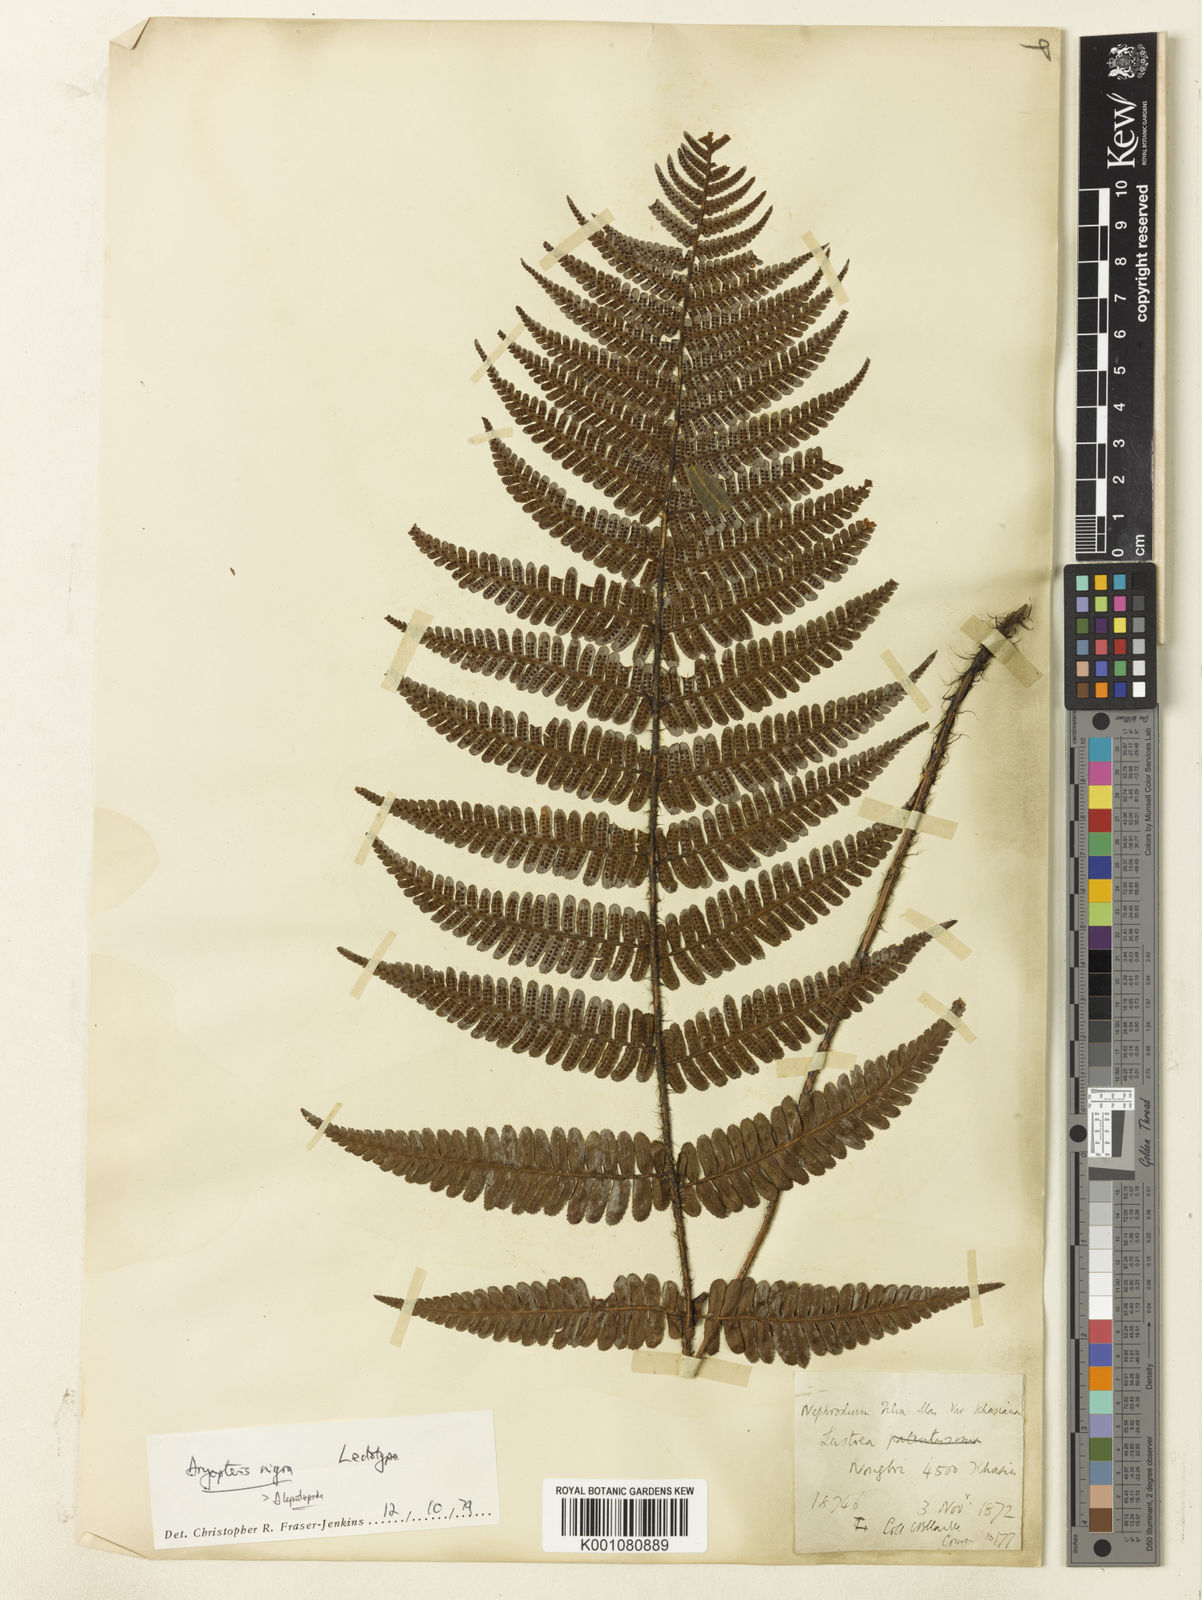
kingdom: Plantae
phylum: Tracheophyta
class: Polypodiopsida
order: Polypodiales
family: Dryopteridaceae
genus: Dryopteris
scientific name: Dryopteris lepidopoda
